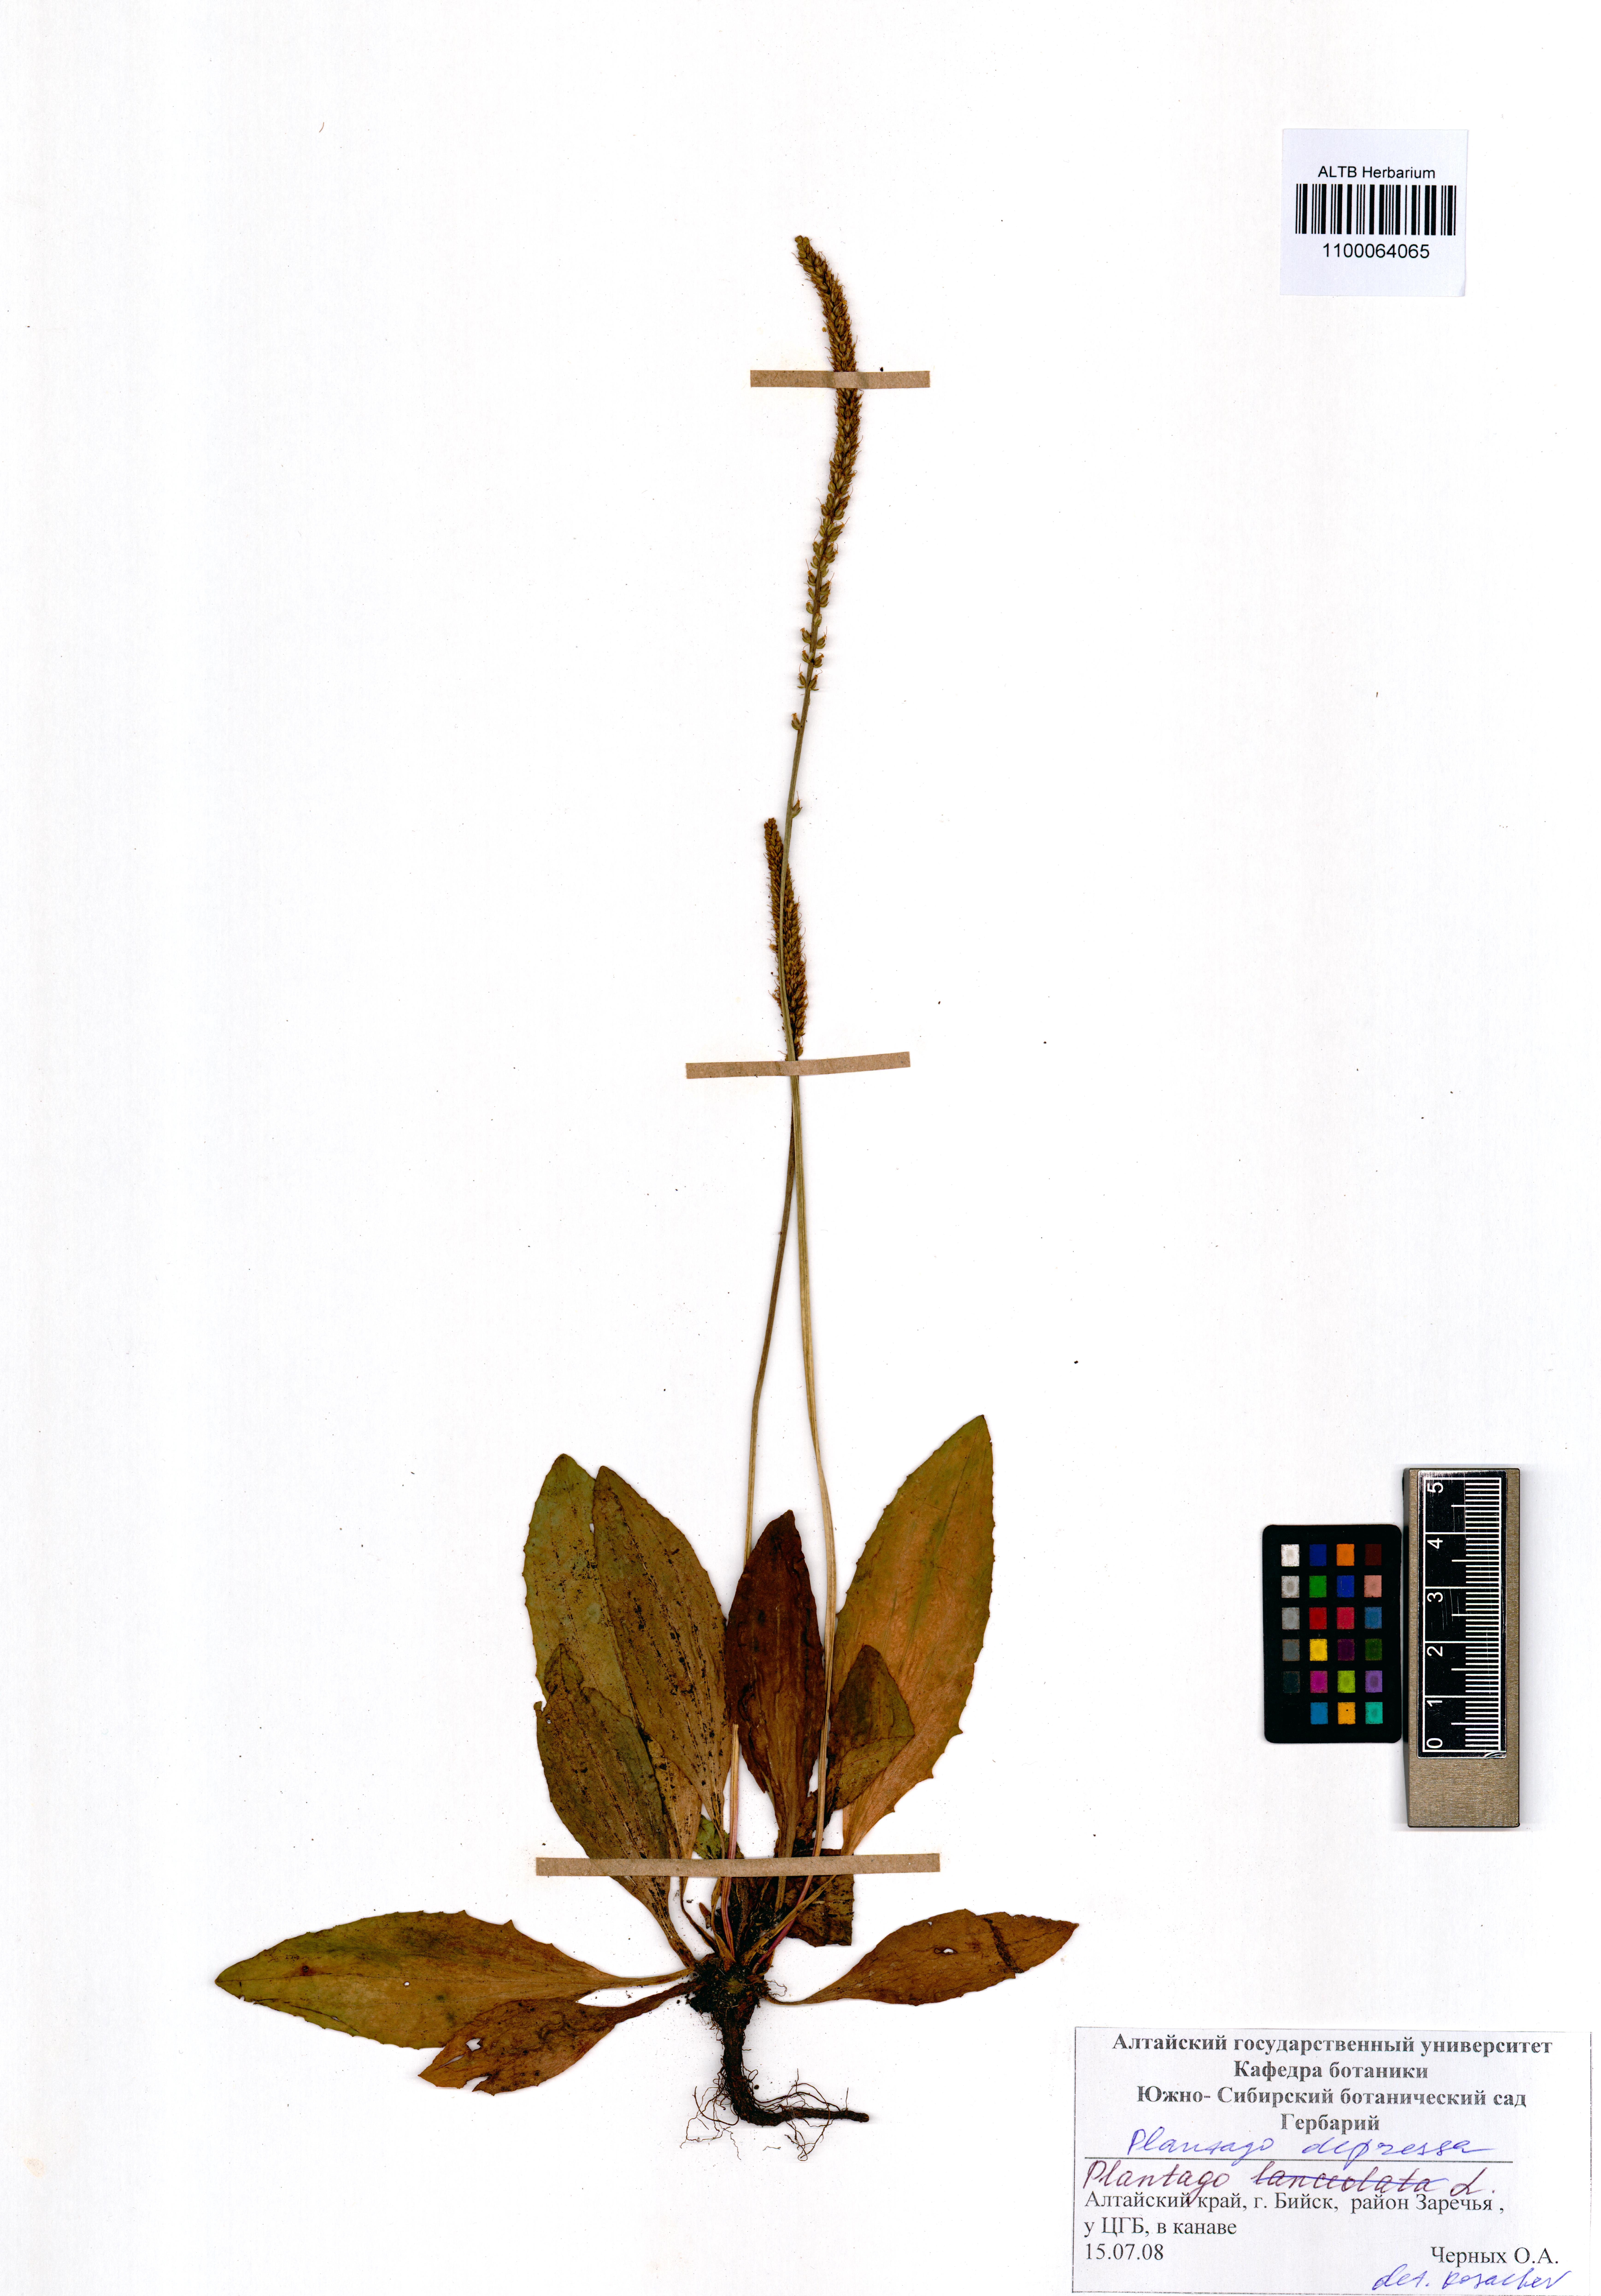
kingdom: Plantae
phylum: Tracheophyta
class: Magnoliopsida
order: Lamiales
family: Plantaginaceae
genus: Plantago
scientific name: Plantago depressa
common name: Depressed plantain
